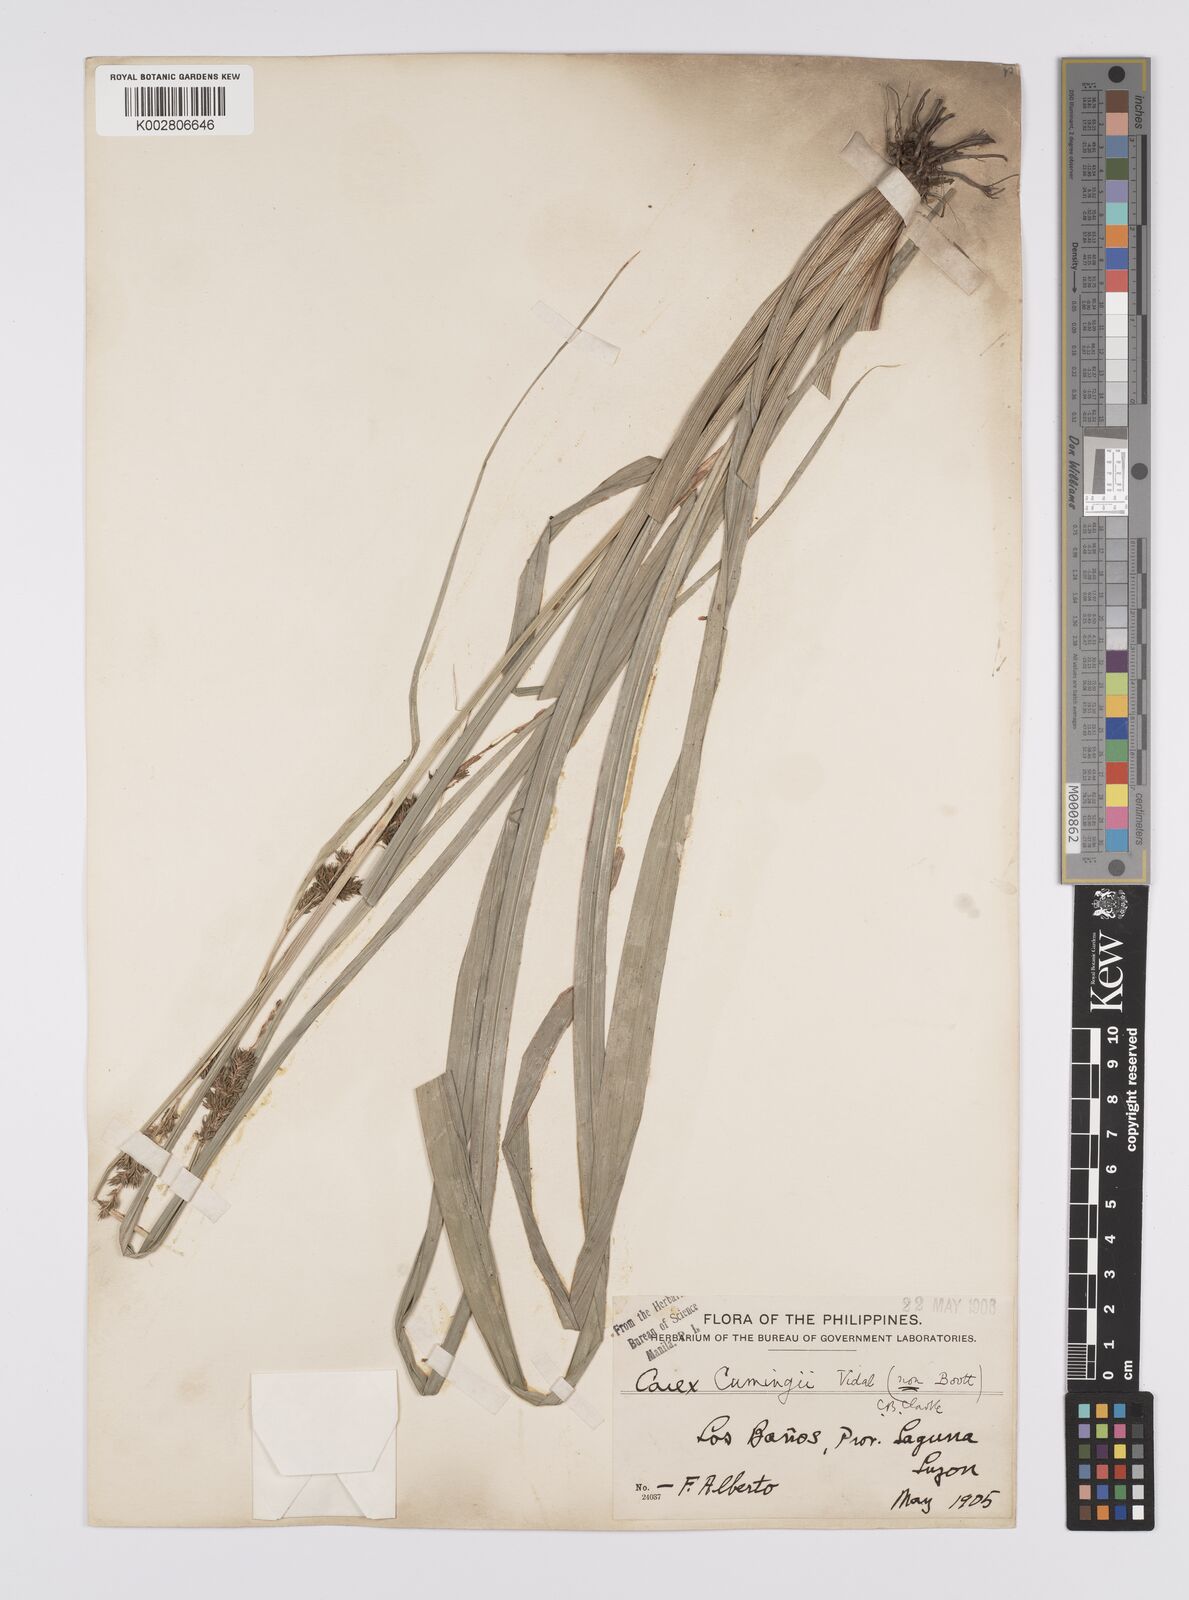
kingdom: Plantae
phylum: Tracheophyta
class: Liliopsida
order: Poales
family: Cyperaceae
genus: Carex
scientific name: Carex nodiflora
